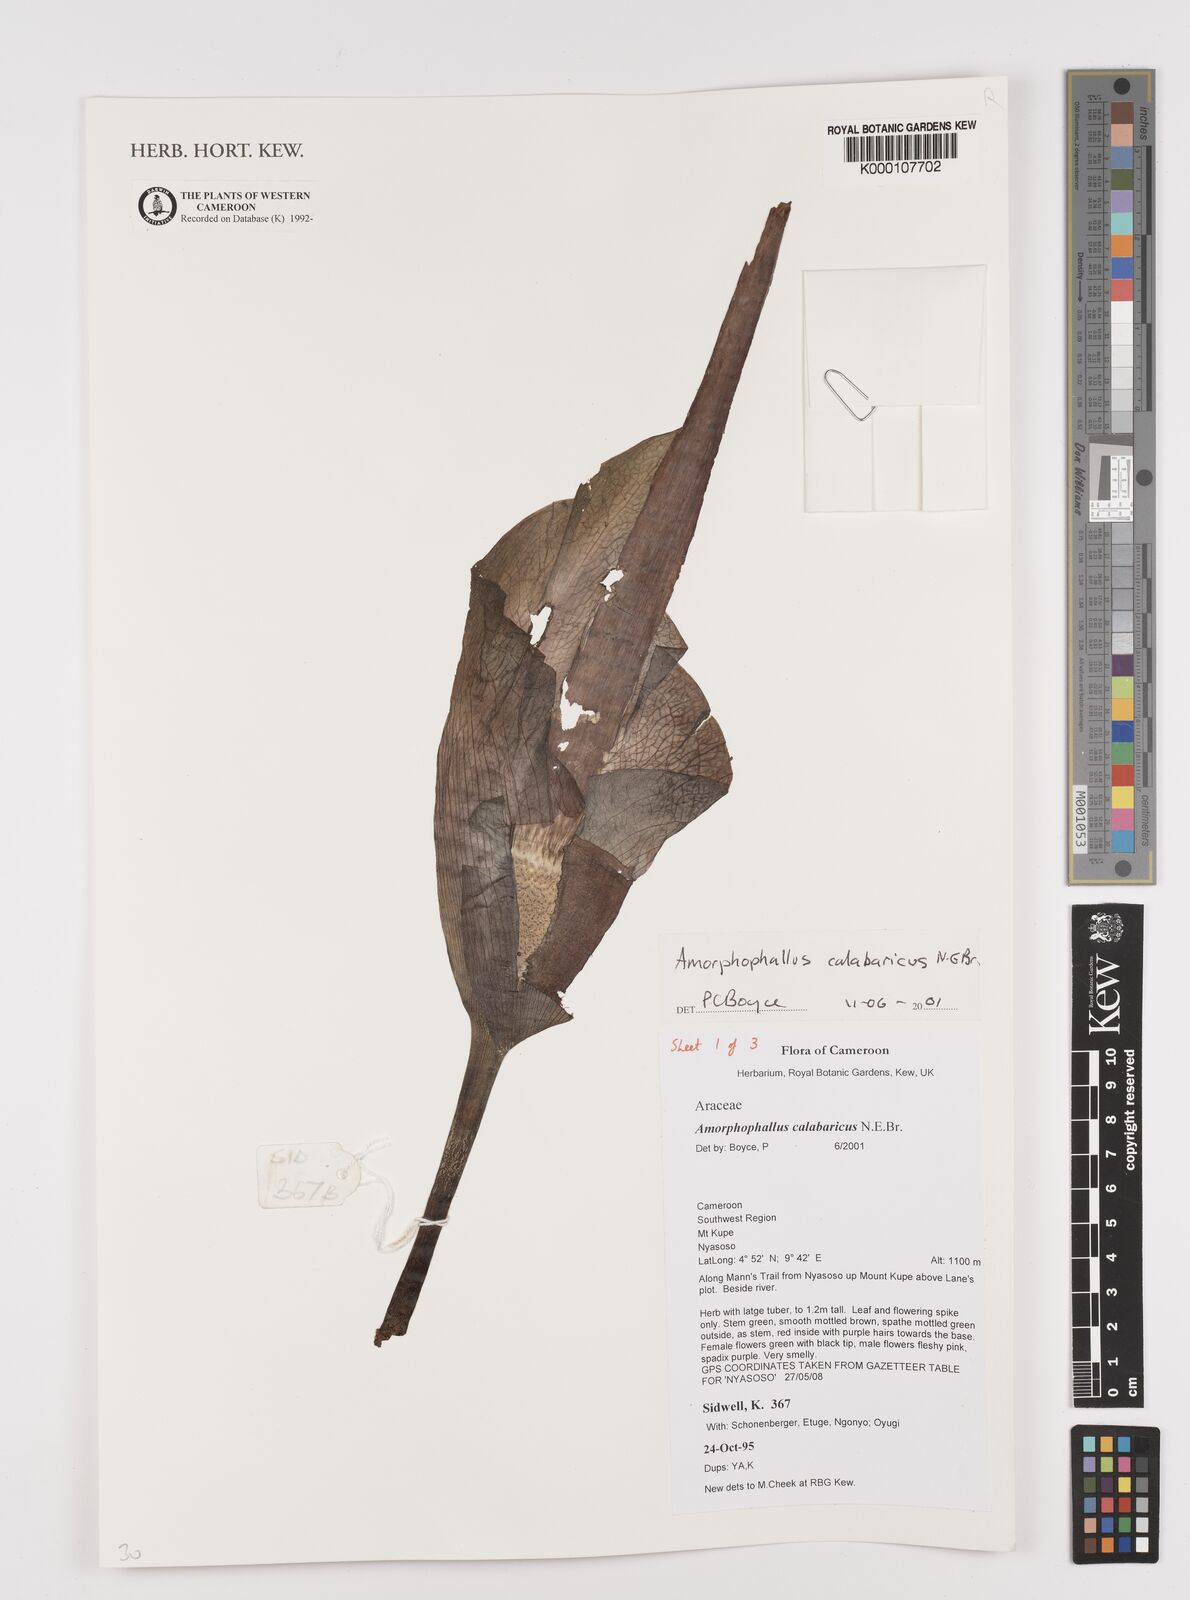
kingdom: Plantae
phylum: Tracheophyta
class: Liliopsida
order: Alismatales
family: Araceae
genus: Amorphophallus
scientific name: Amorphophallus calabaricus
